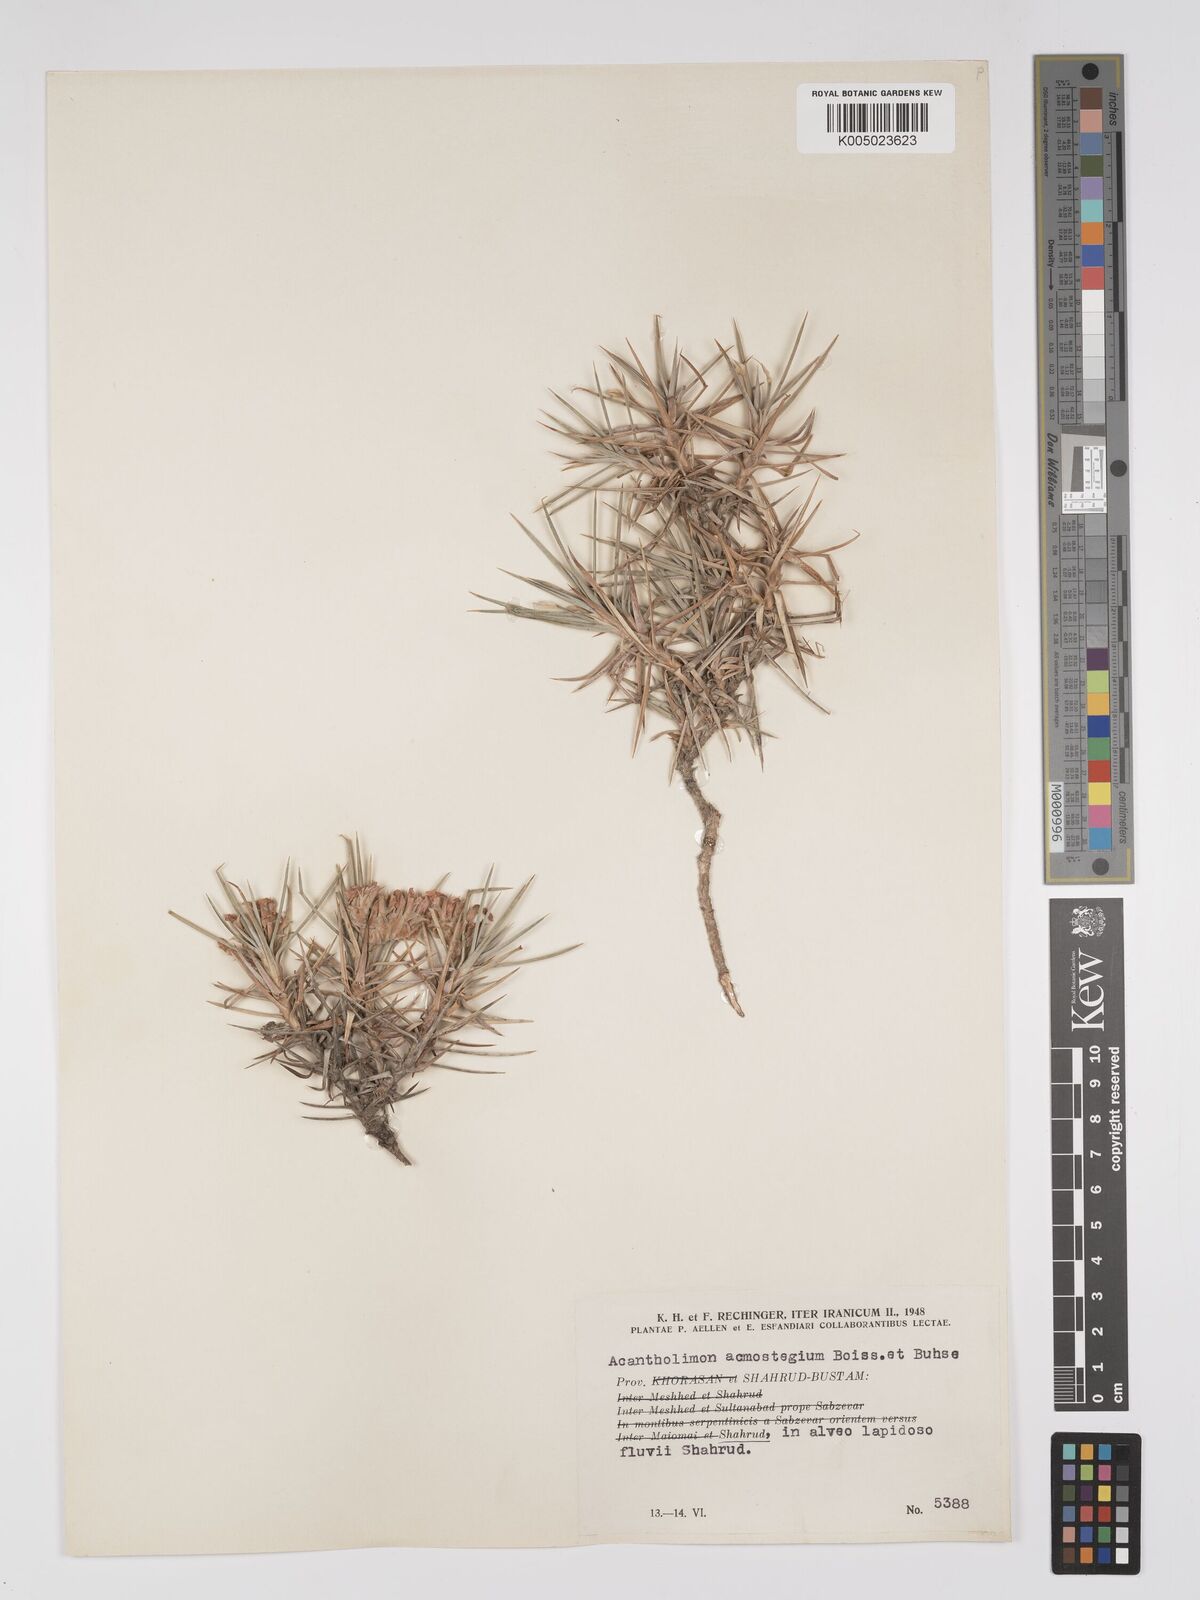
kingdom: Plantae
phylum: Tracheophyta
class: Magnoliopsida
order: Caryophyllales
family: Plumbaginaceae
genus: Acantholimon
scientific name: Acantholimon acmostegium
